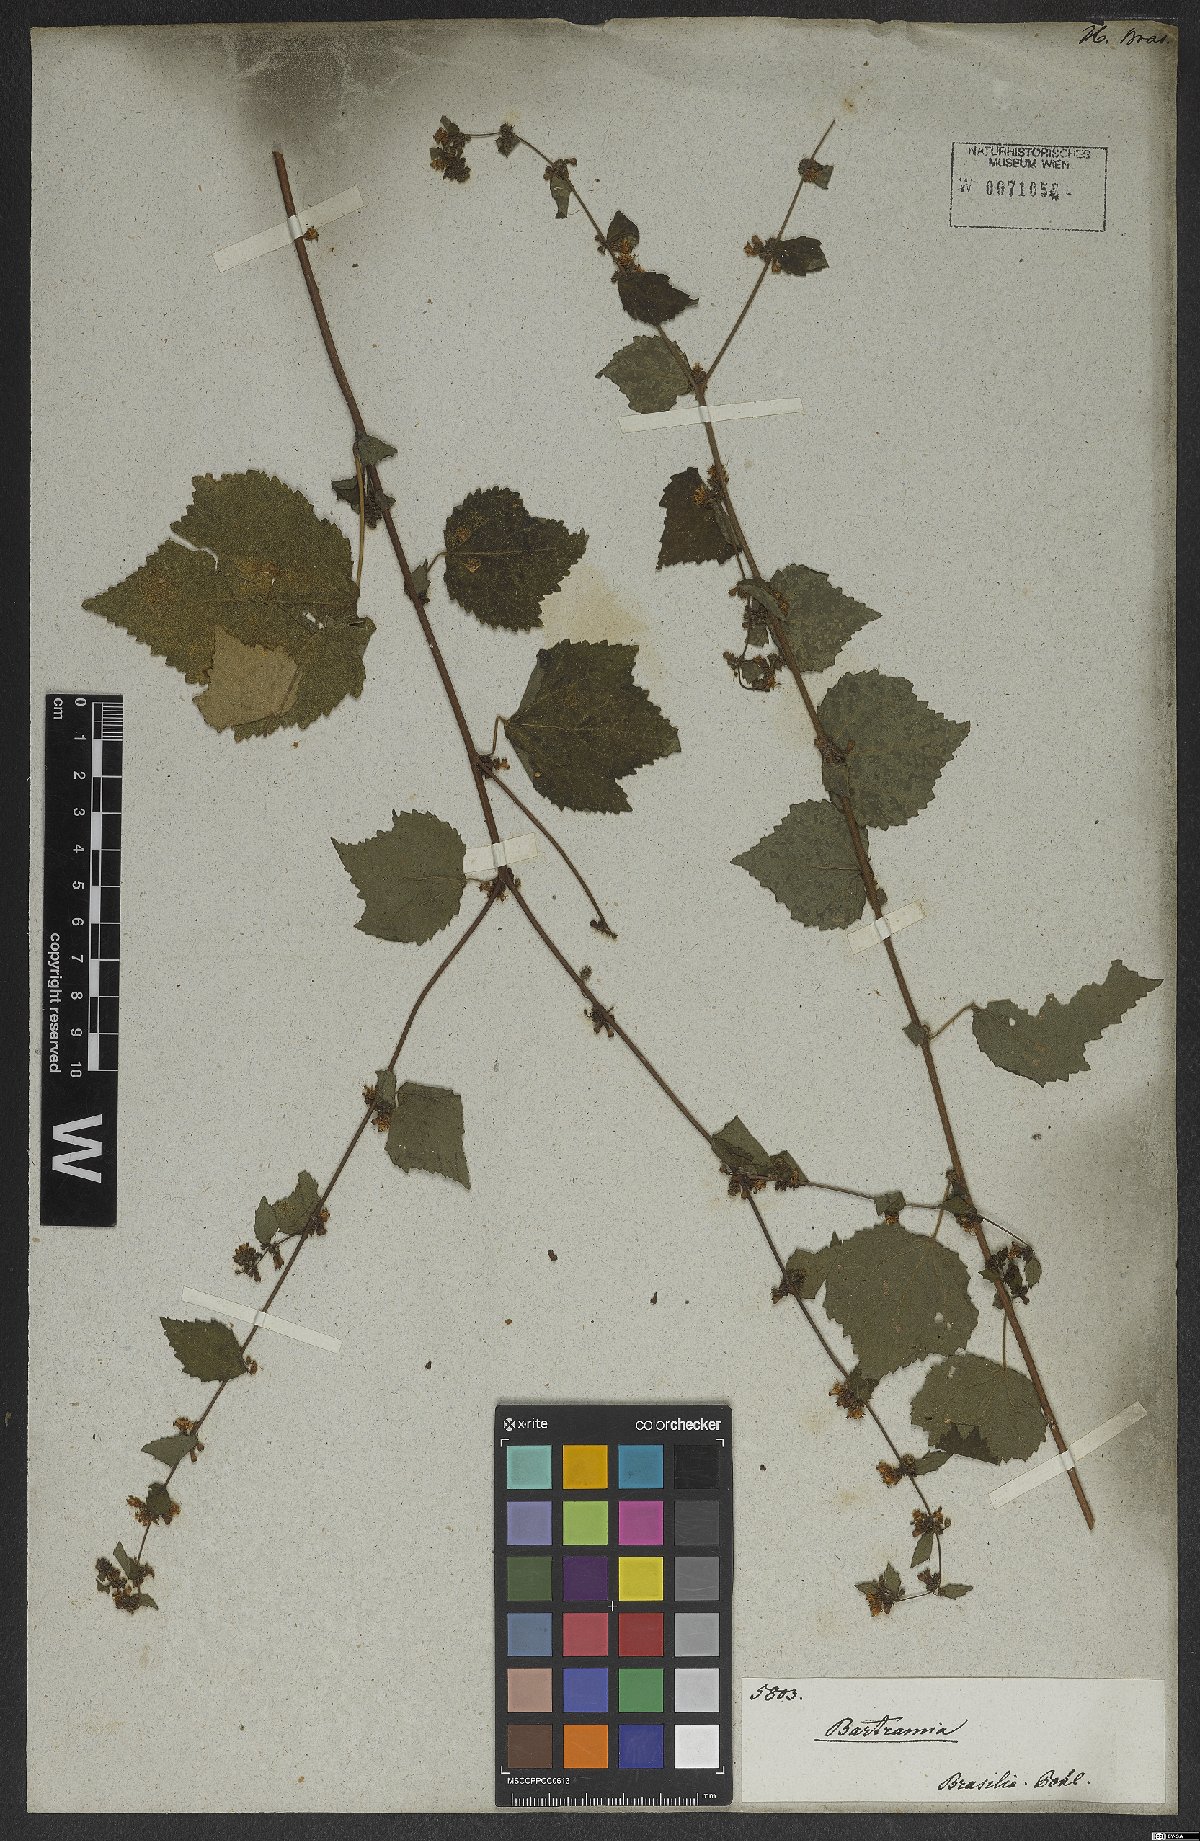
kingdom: Plantae
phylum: Tracheophyta
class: Magnoliopsida
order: Malvales
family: Malvaceae
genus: Triumfetta
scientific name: Triumfetta rhomboidea
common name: Diamond burbark
